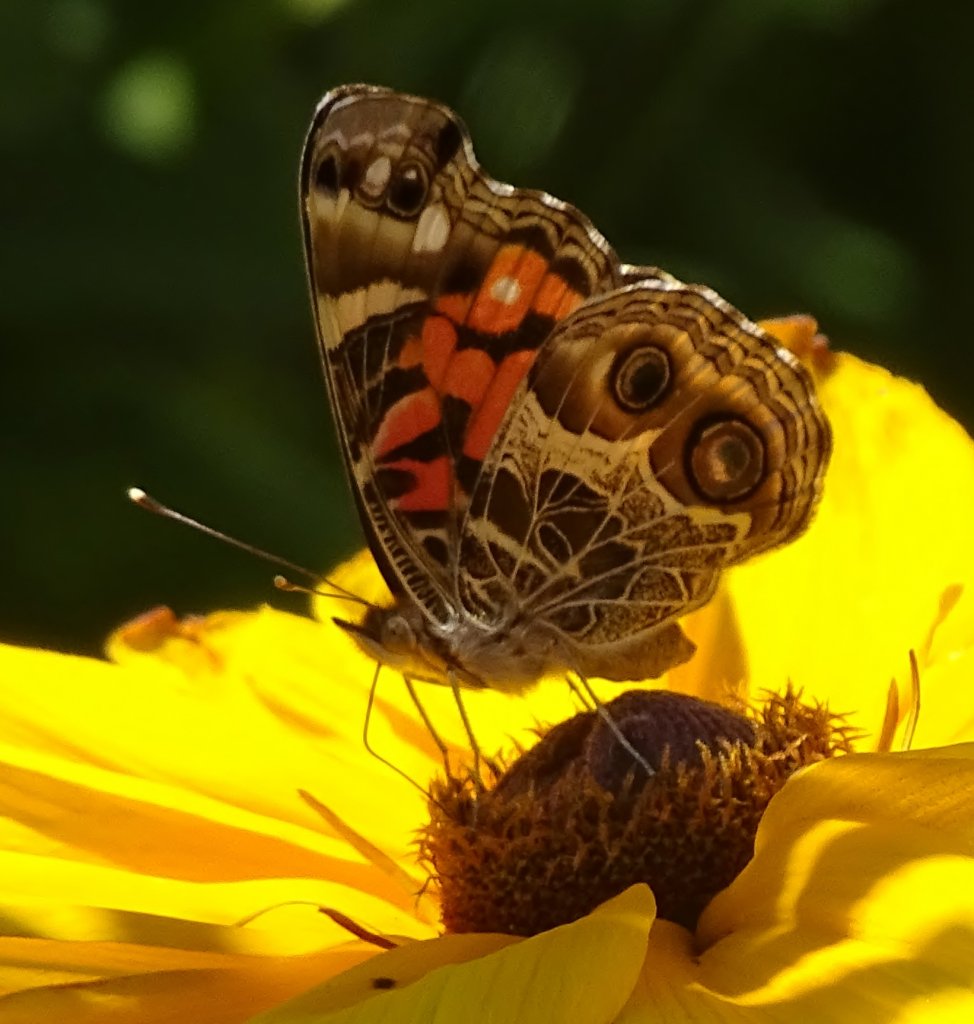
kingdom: Animalia
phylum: Arthropoda
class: Insecta
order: Lepidoptera
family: Nymphalidae
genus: Vanessa
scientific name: Vanessa virginiensis
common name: American Lady
